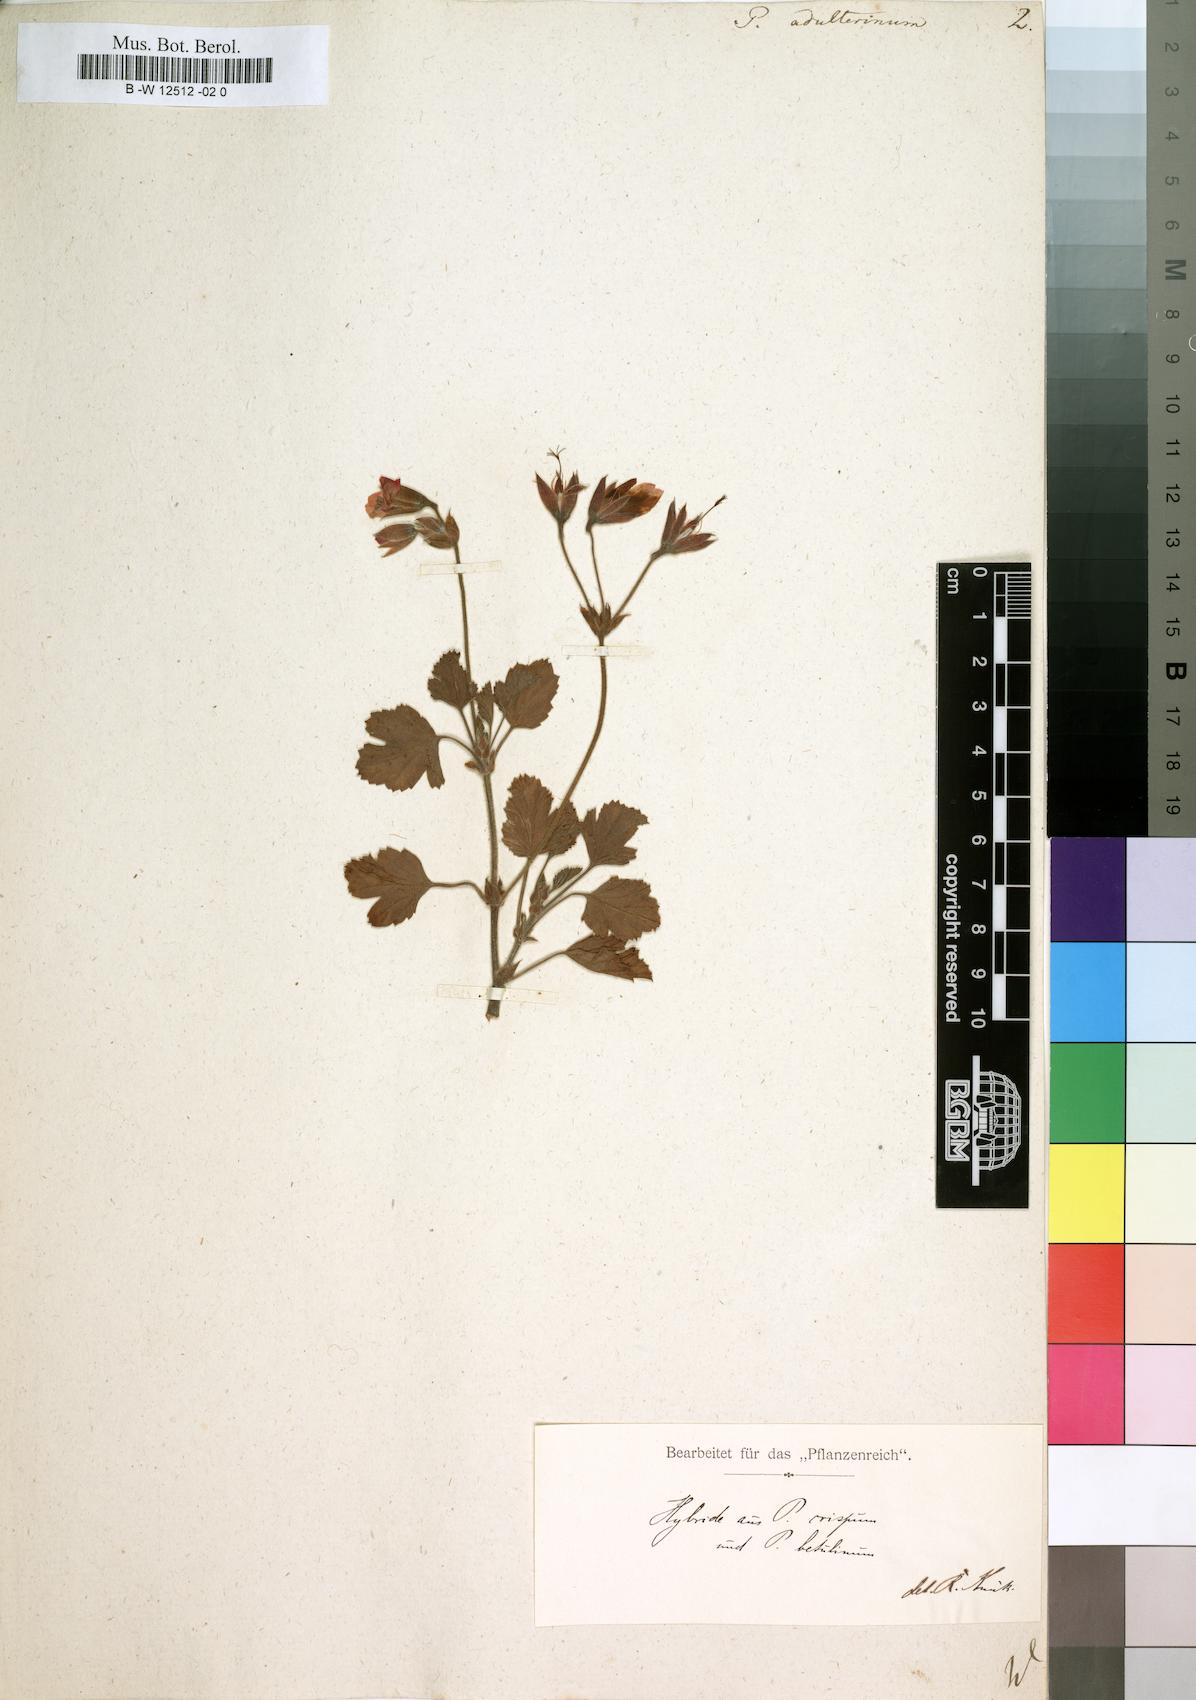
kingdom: Plantae
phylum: Tracheophyta
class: Magnoliopsida
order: Geraniales
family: Geraniaceae
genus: Pelargonium
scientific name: Pelargonium
